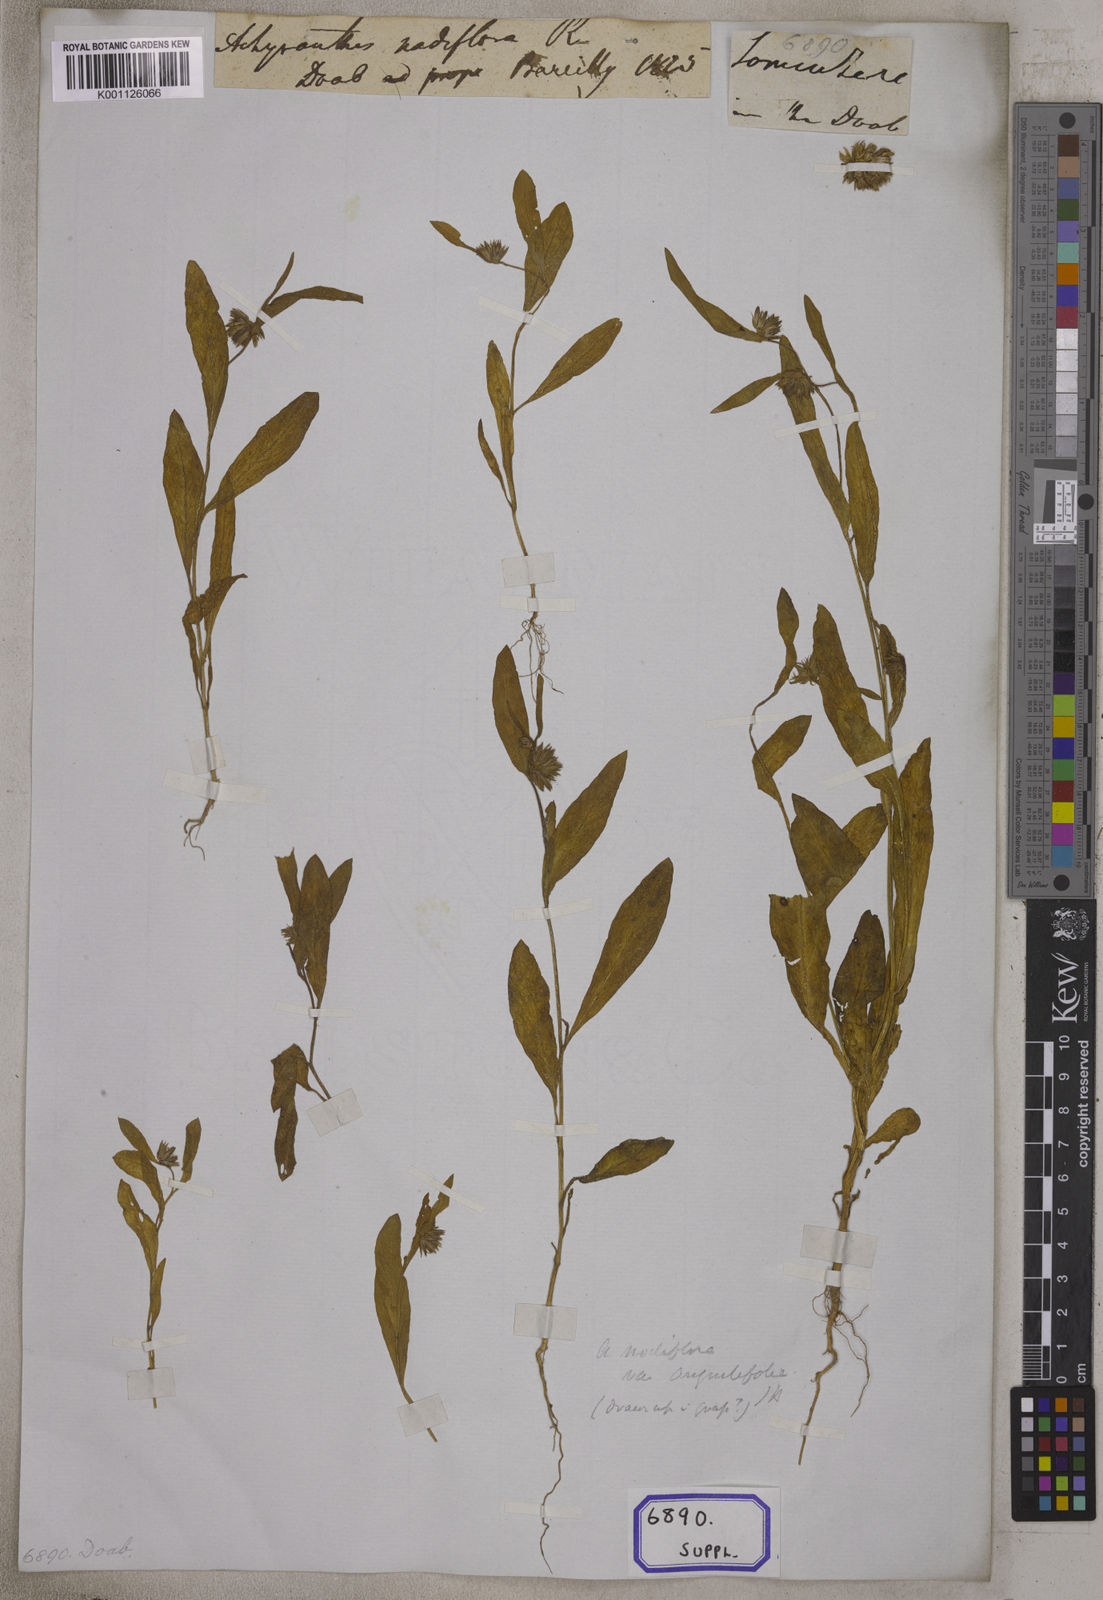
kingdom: Plantae
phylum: Tracheophyta
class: Magnoliopsida
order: Caryophyllales
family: Amaranthaceae
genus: Allmania
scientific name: Allmania
